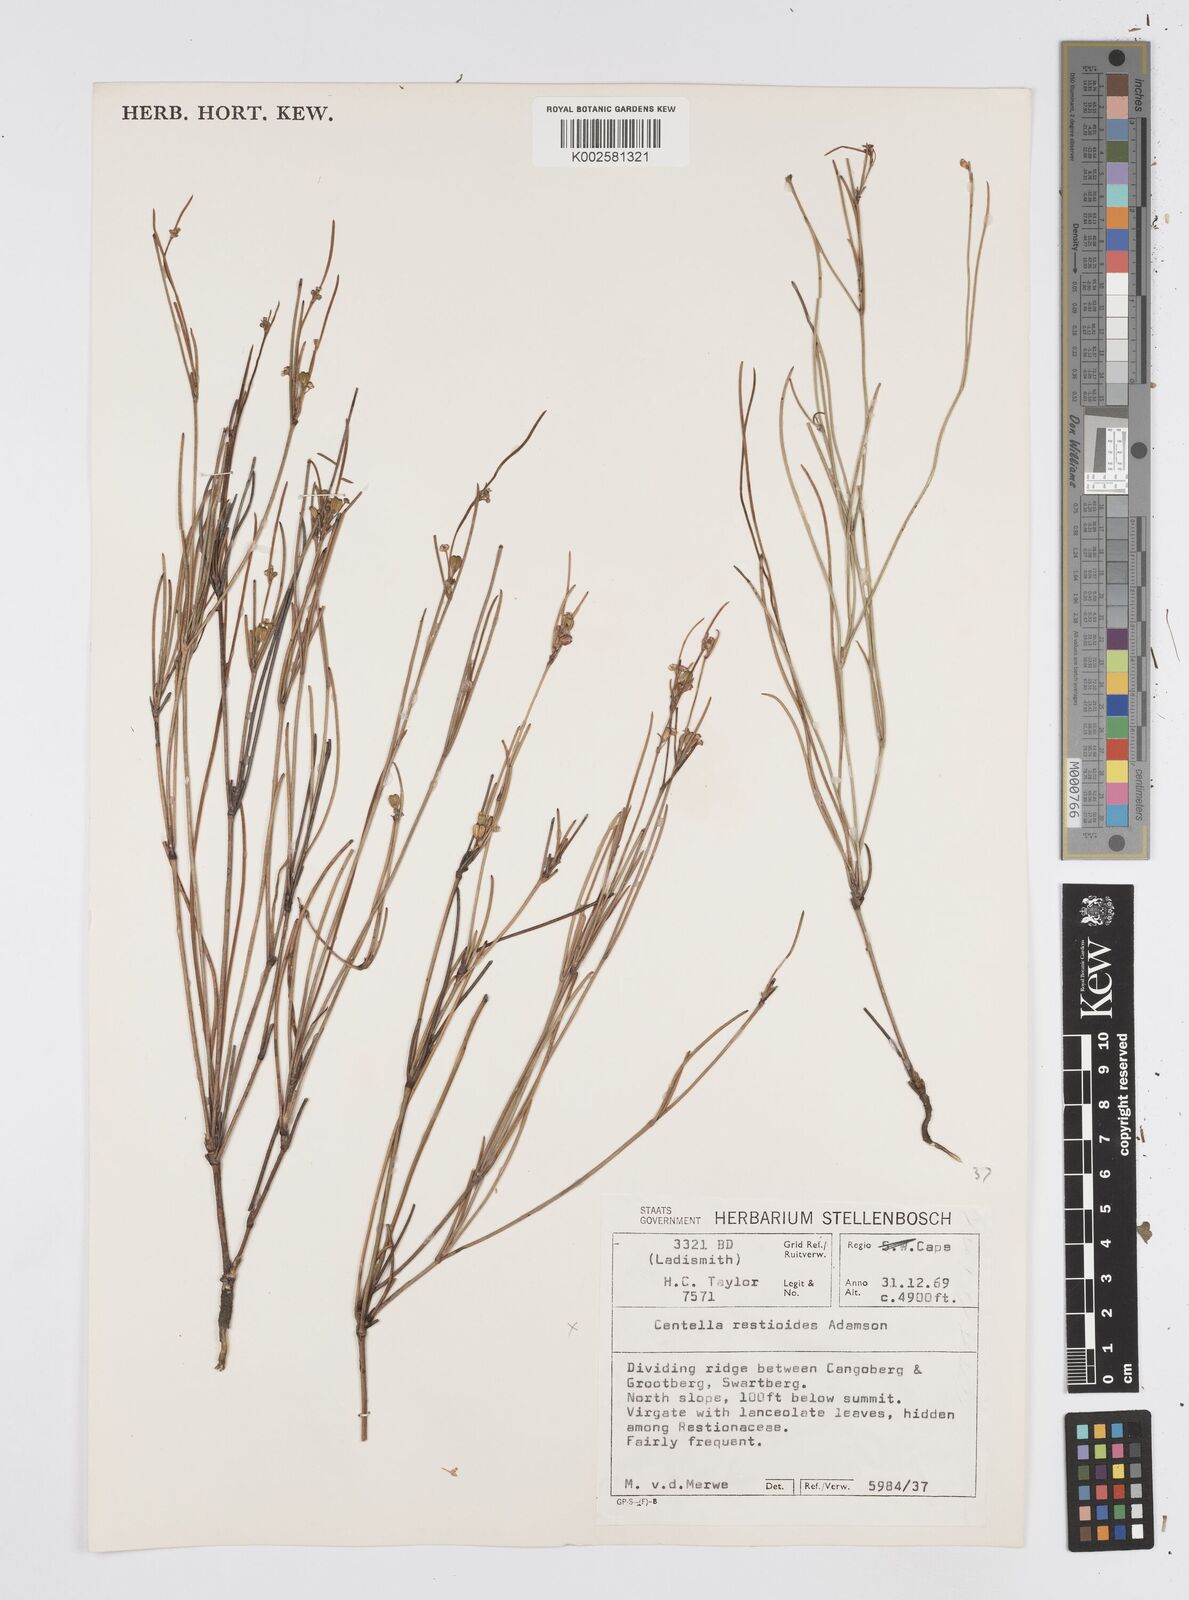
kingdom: Plantae
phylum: Tracheophyta
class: Magnoliopsida
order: Apiales
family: Apiaceae
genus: Centella
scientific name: Centella restioides
